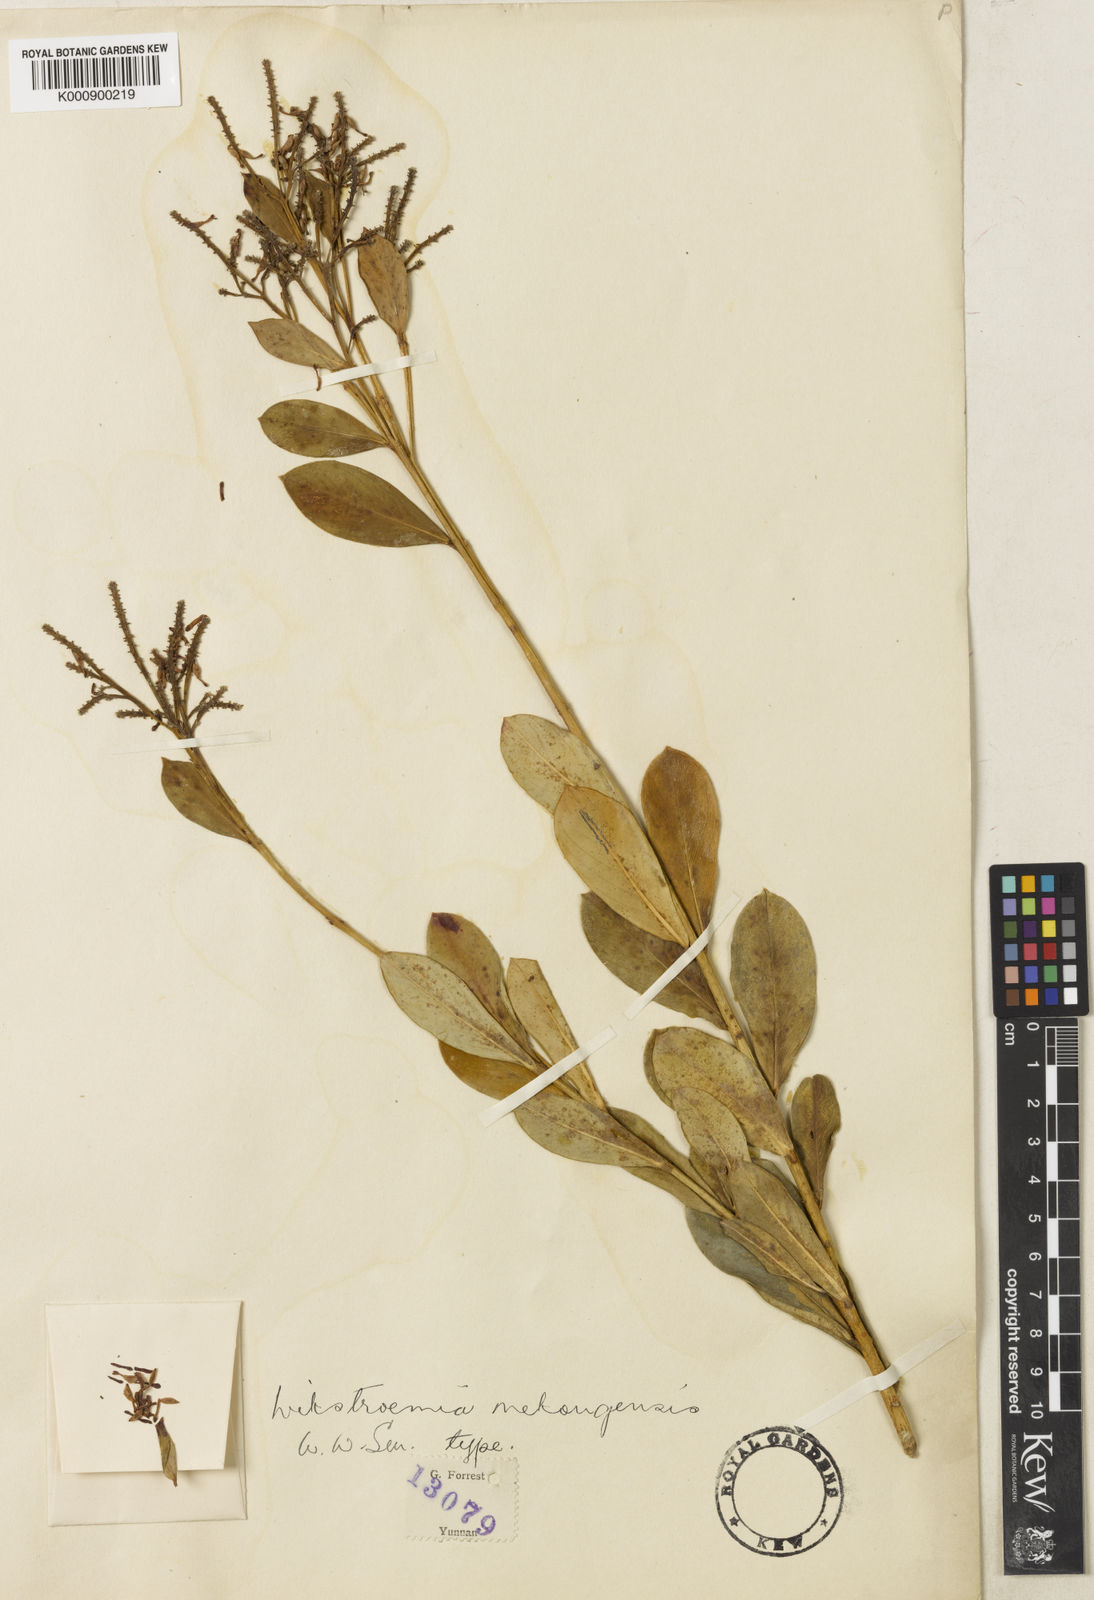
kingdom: Plantae
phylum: Tracheophyta
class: Magnoliopsida
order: Malvales
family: Thymelaeaceae
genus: Wikstroemia
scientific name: Wikstroemia delavayi
